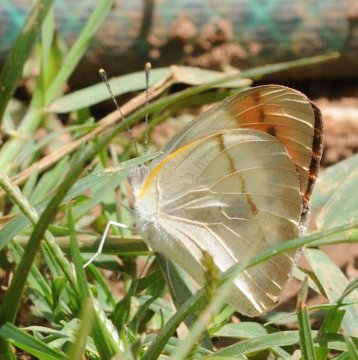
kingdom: Animalia
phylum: Arthropoda
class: Insecta
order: Lepidoptera
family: Pieridae
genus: Colotis
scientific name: Colotis ione
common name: Bushveld Purple Tip
